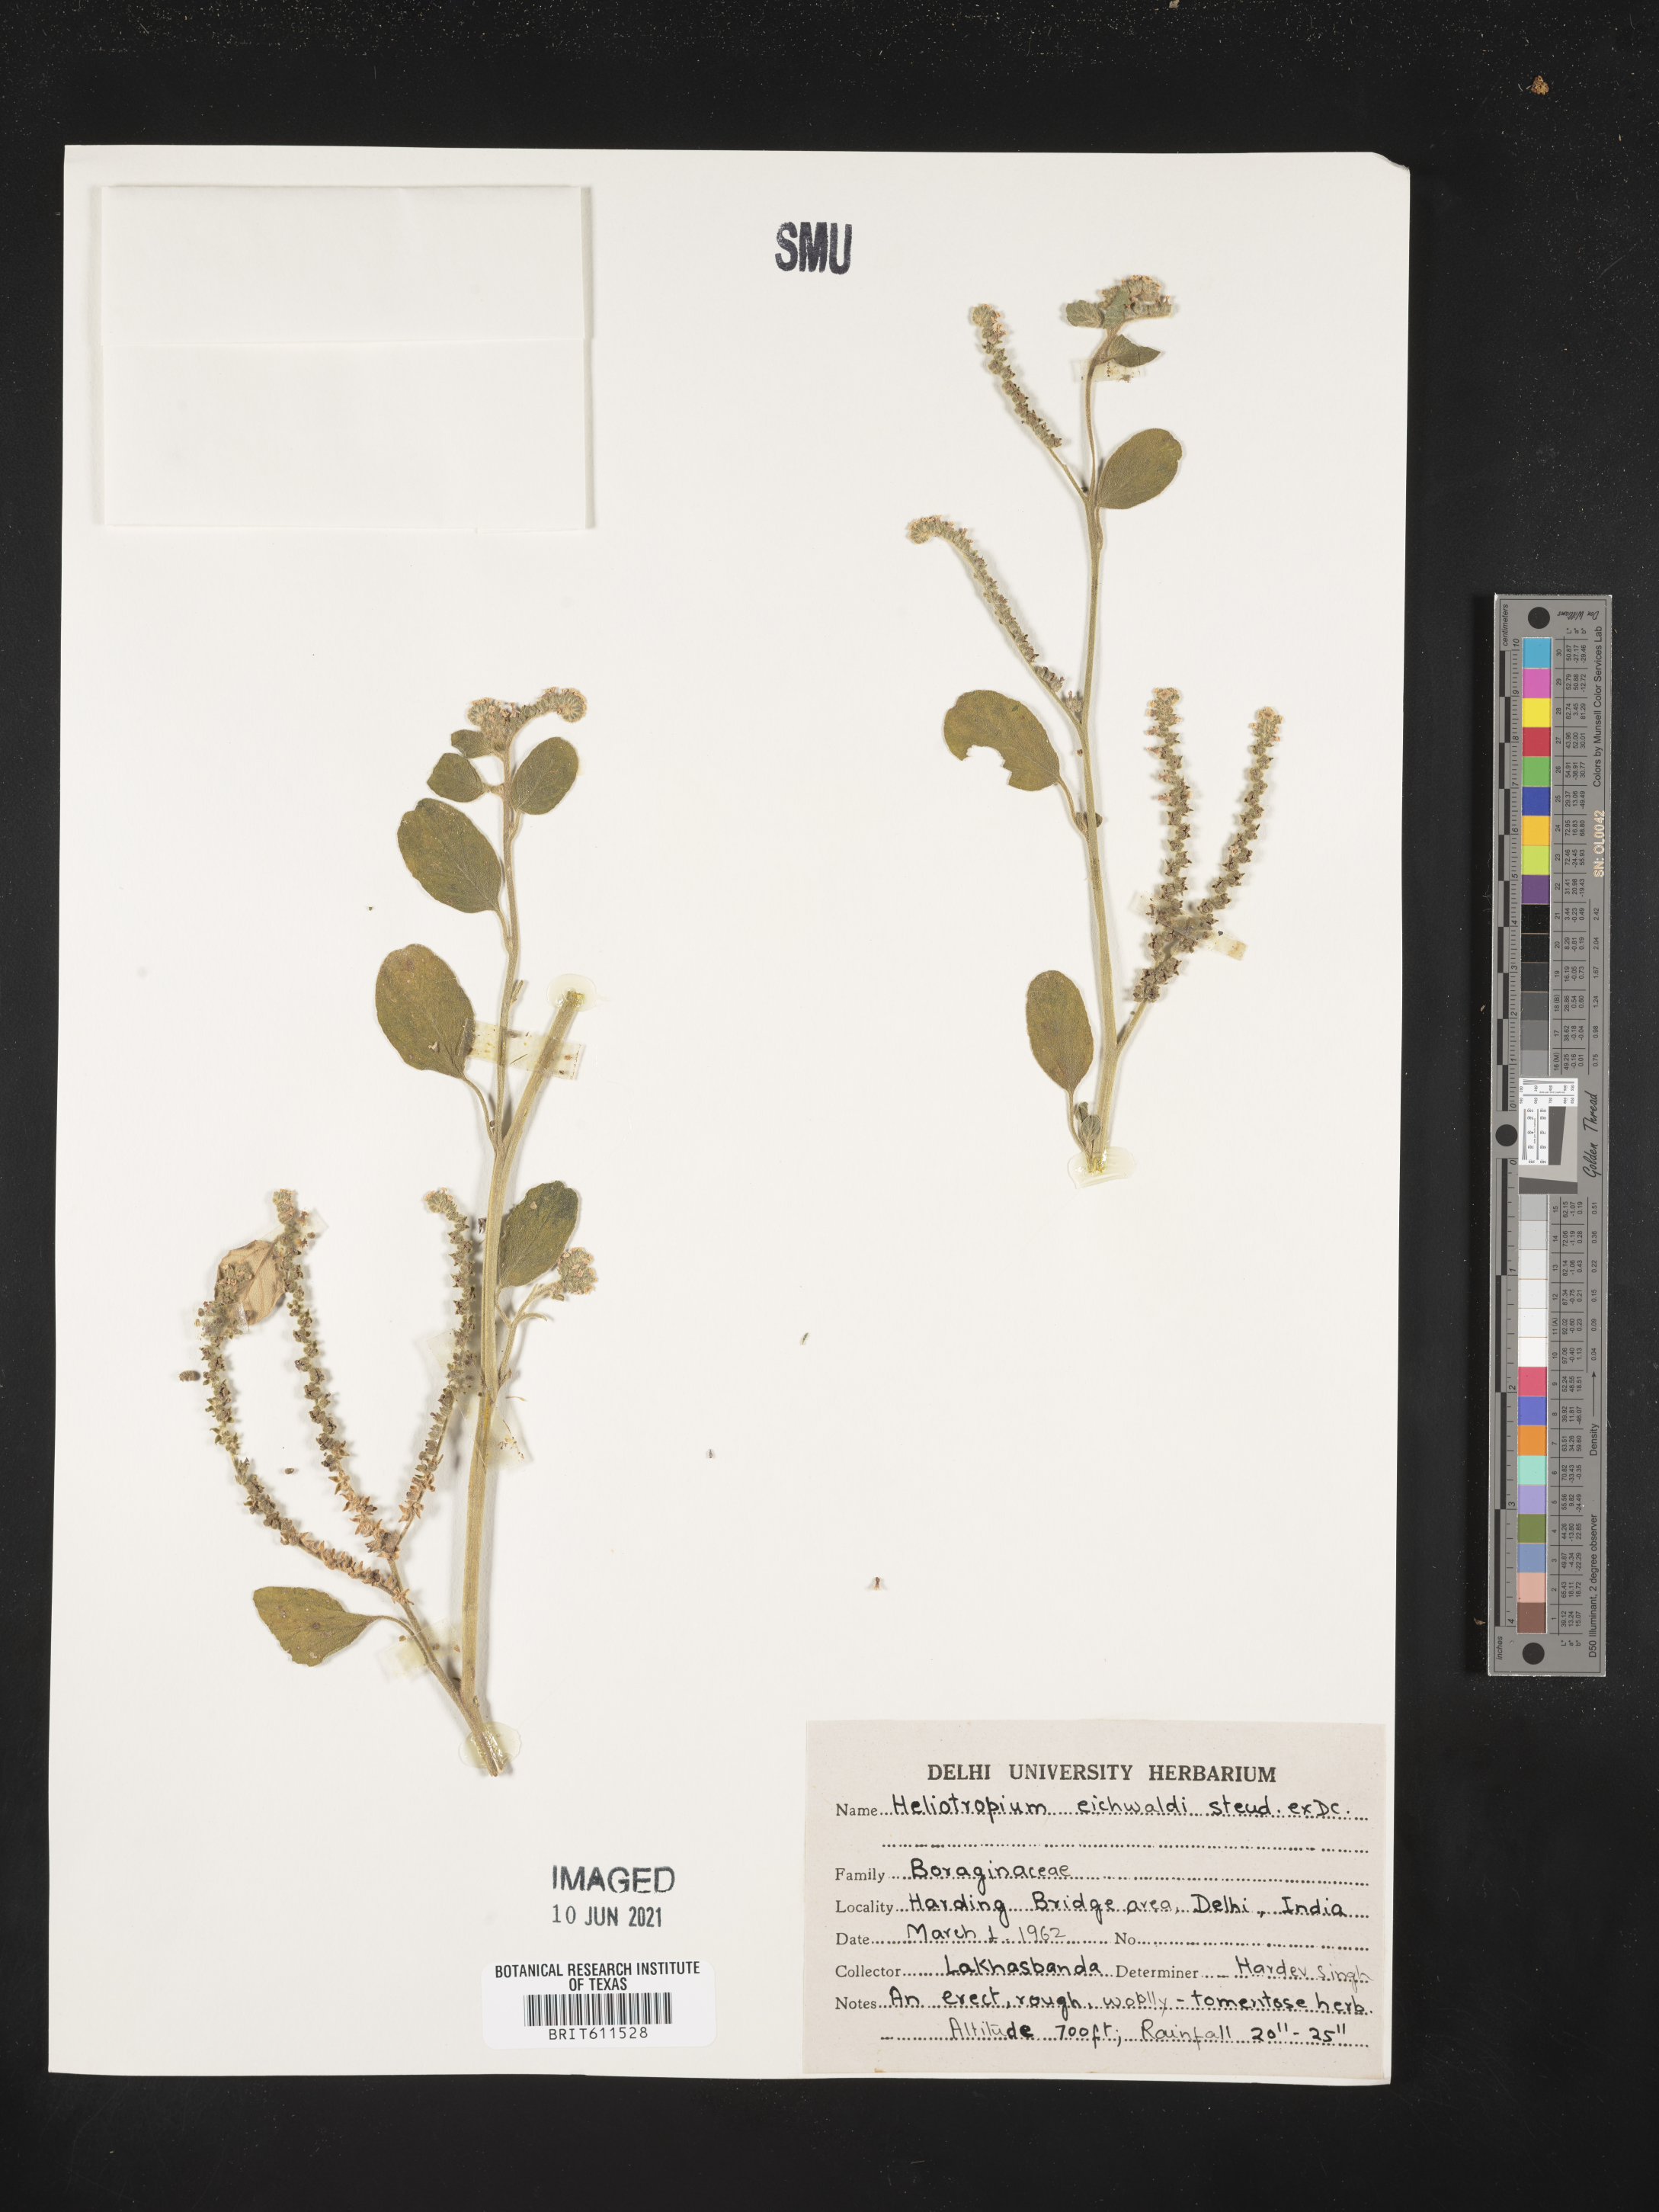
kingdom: Plantae
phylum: Tracheophyta
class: Magnoliopsida
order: Boraginales
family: Heliotropiaceae
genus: Heliotropium
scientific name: Heliotropium dolosum
